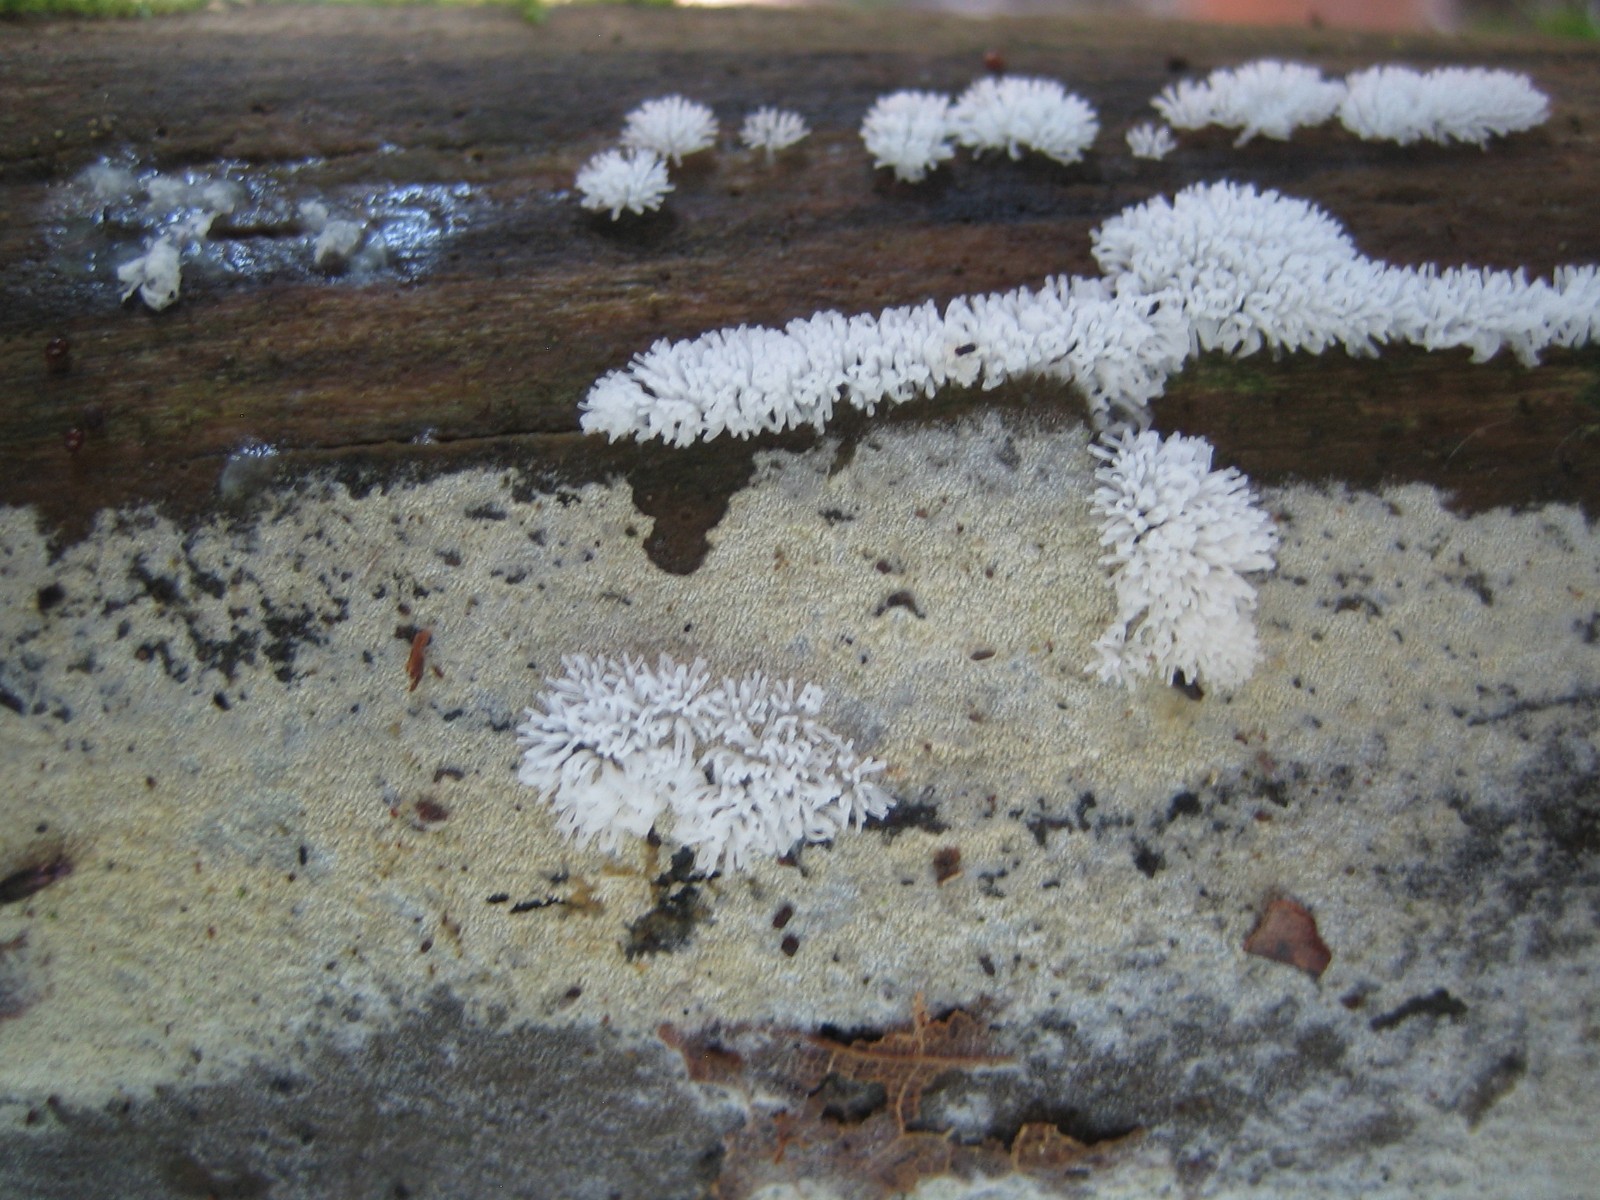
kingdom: Protozoa
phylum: Mycetozoa
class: Protosteliomycetes
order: Ceratiomyxales
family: Ceratiomyxaceae
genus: Ceratiomyxa
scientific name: Ceratiomyxa fruticulosa
